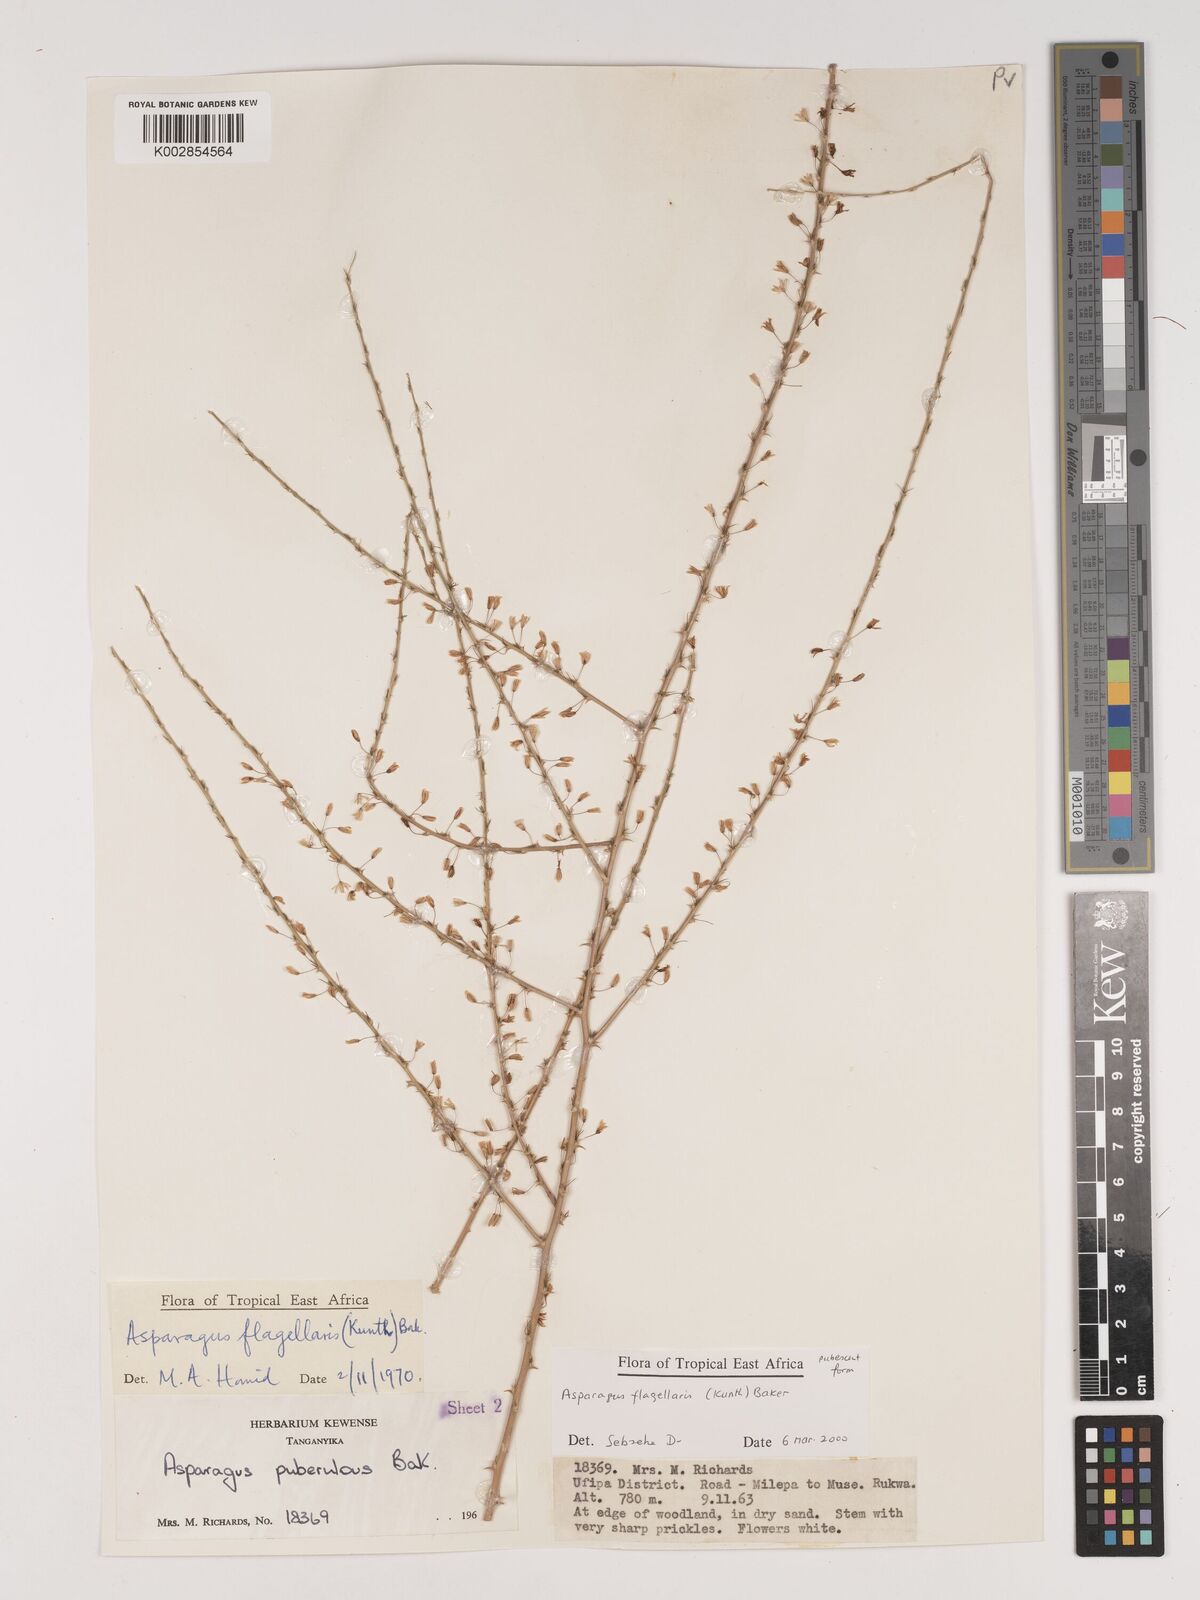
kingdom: Plantae
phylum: Tracheophyta
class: Liliopsida
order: Asparagales
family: Asparagaceae
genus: Asparagus
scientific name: Asparagus flagellaris
